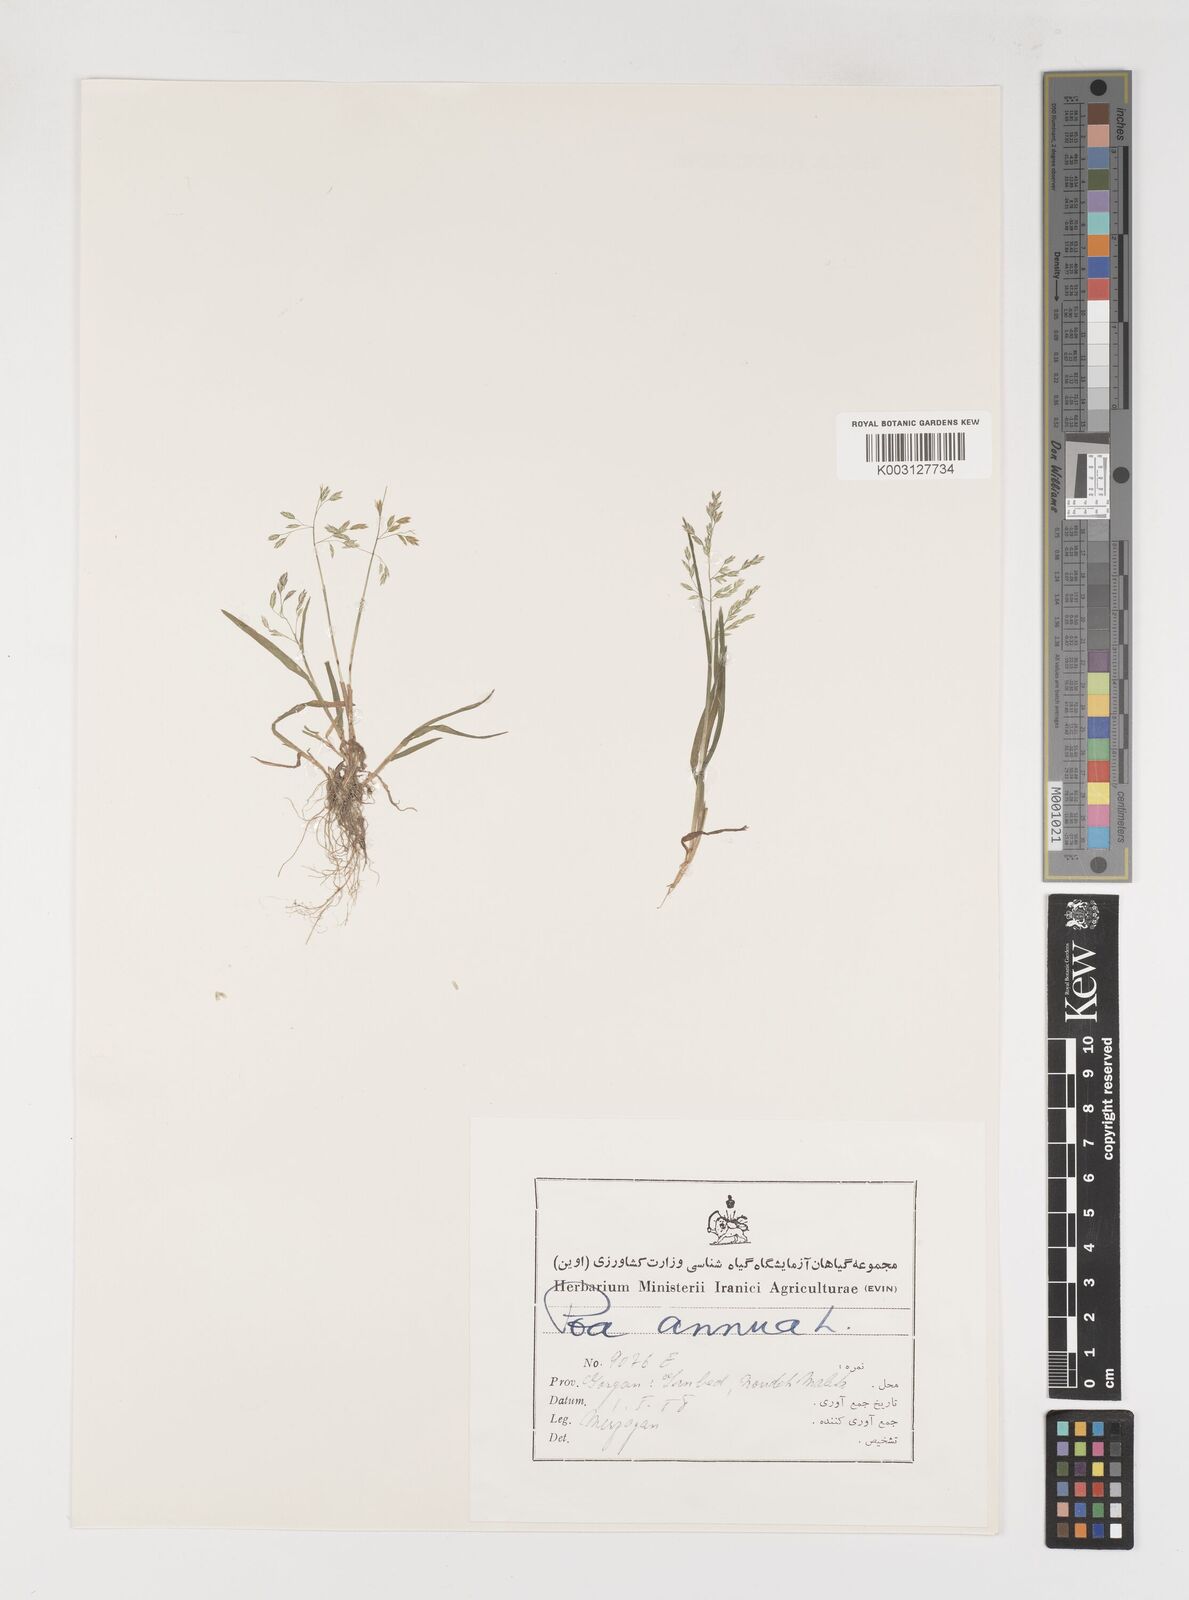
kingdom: Plantae
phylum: Tracheophyta
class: Liliopsida
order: Poales
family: Poaceae
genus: Poa
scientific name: Poa annua
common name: Annual bluegrass
